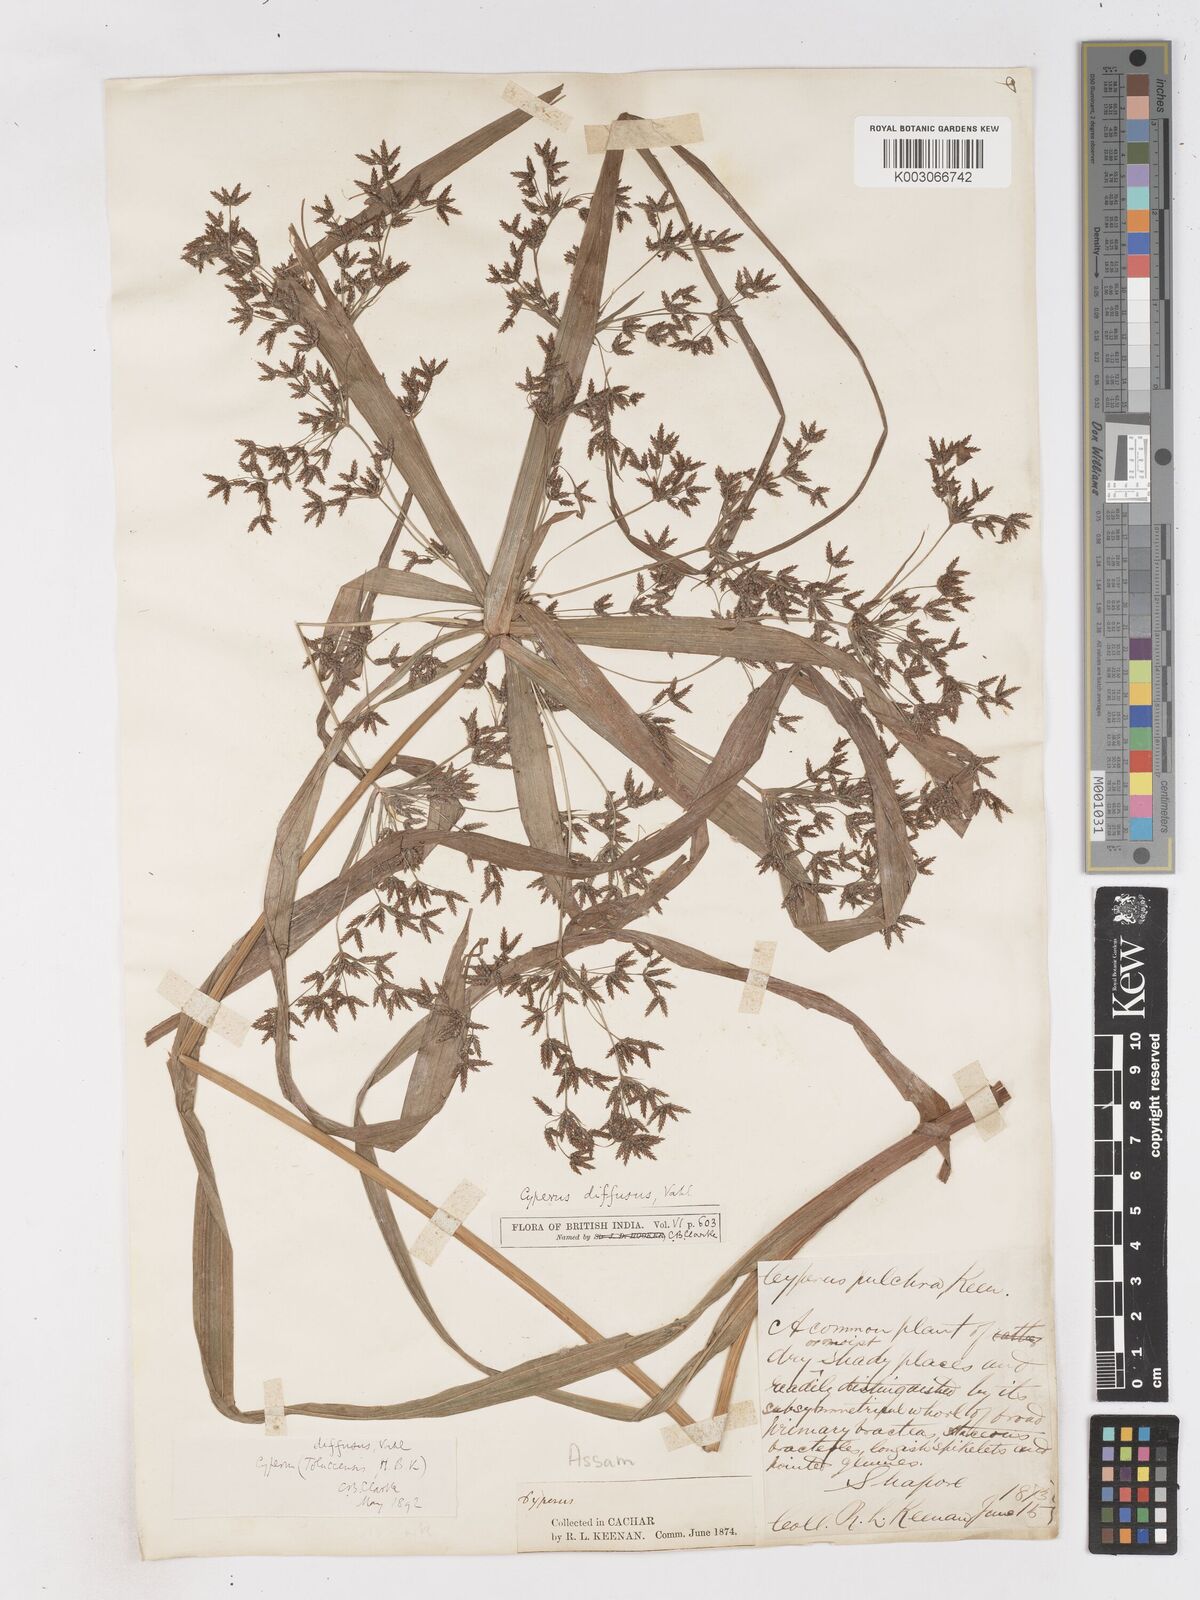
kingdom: Plantae
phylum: Tracheophyta
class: Liliopsida
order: Poales
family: Cyperaceae
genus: Cyperus
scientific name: Cyperus diffusus
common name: Dwarf umbrella grass
